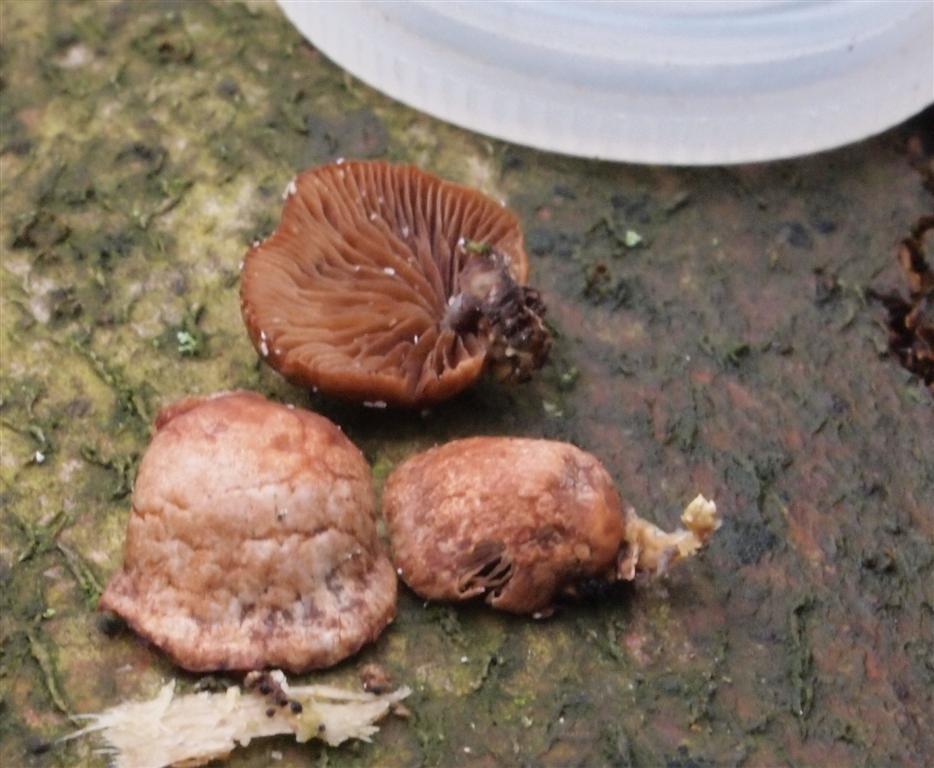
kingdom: Fungi
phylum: Basidiomycota
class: Agaricomycetes
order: Agaricales
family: Strophariaceae
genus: Deconica
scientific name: Deconica horizontalis
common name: ved-stråhat
